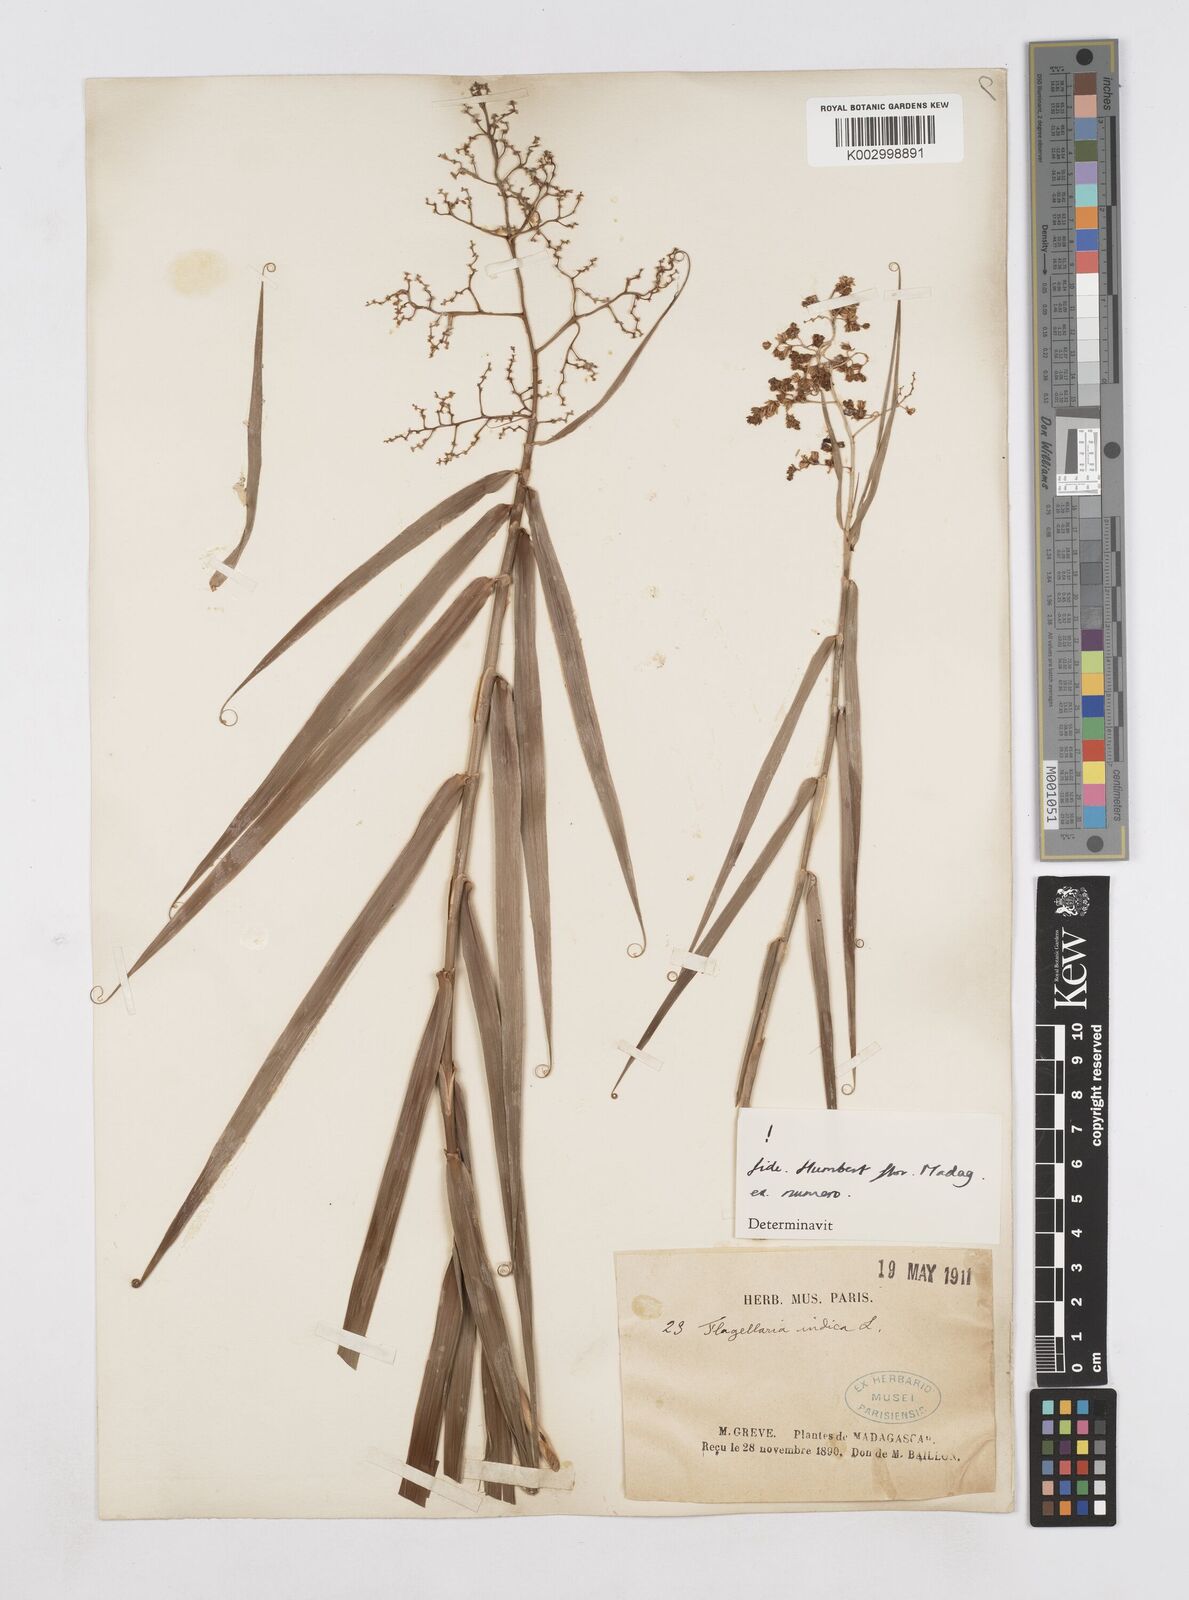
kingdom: Plantae
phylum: Tracheophyta
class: Liliopsida
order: Poales
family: Flagellariaceae
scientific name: Flagellariaceae
